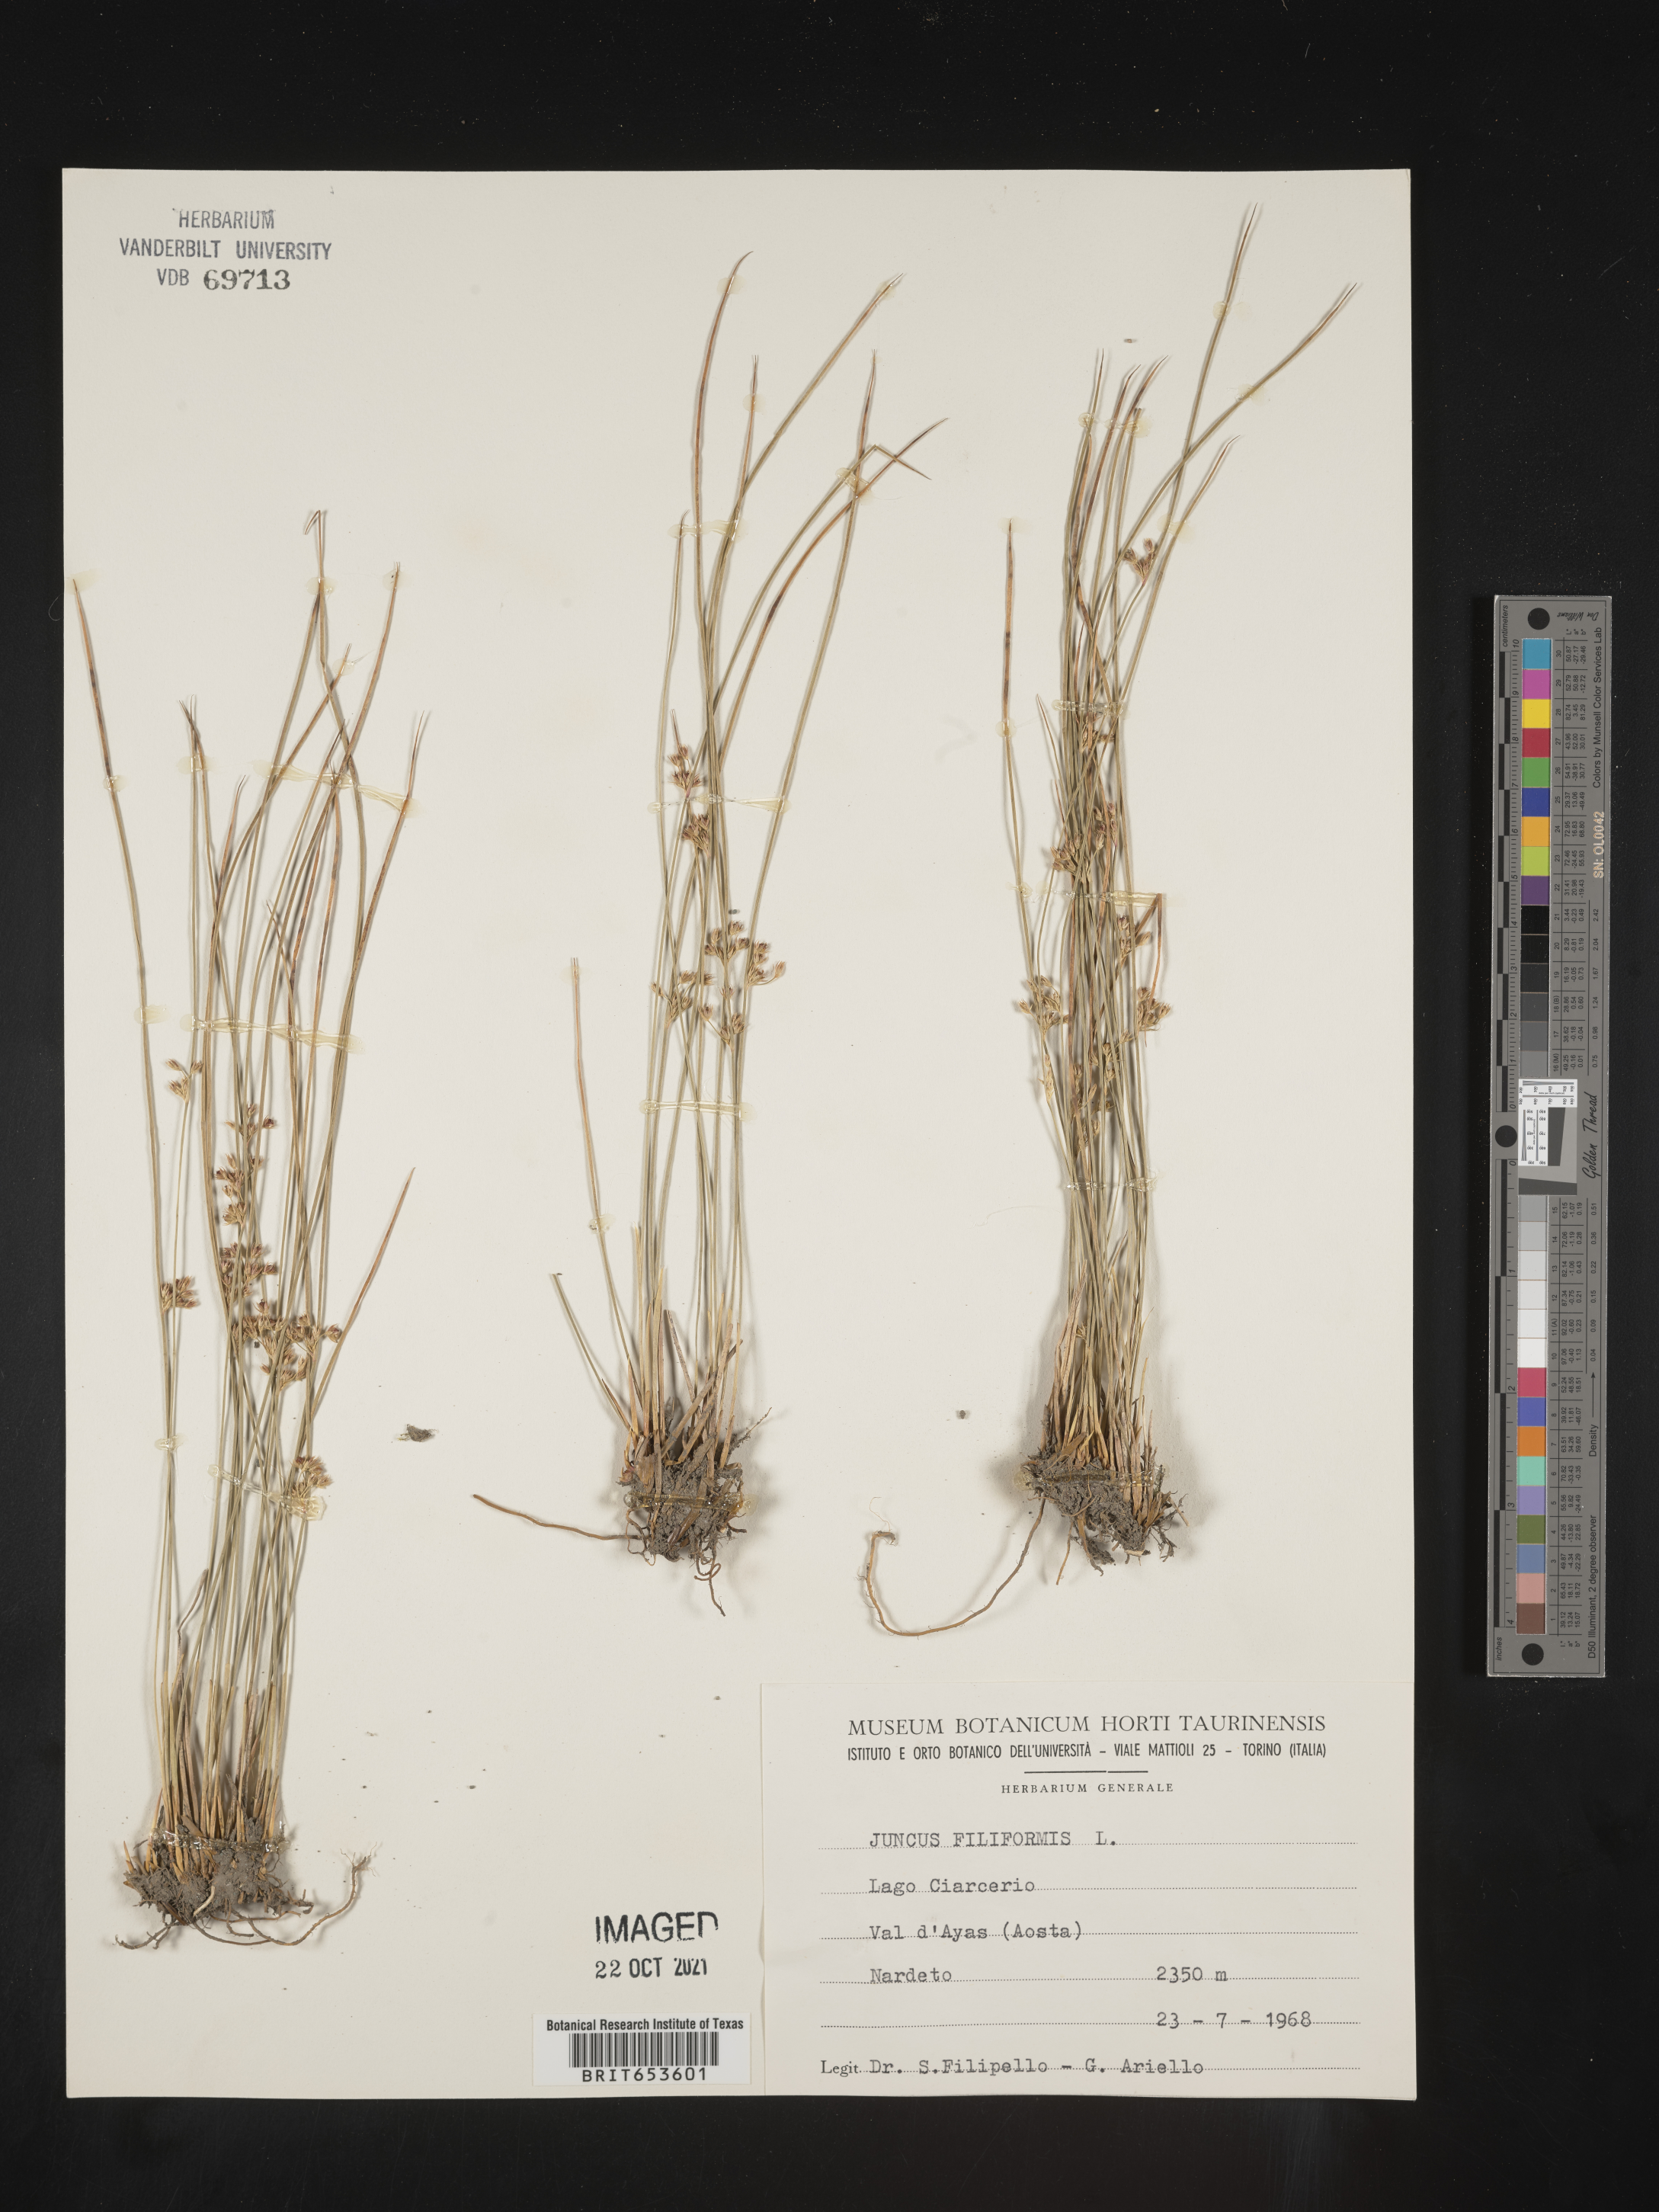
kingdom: Plantae
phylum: Tracheophyta
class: Liliopsida
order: Poales
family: Juncaceae
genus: Juncus
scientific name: Juncus
